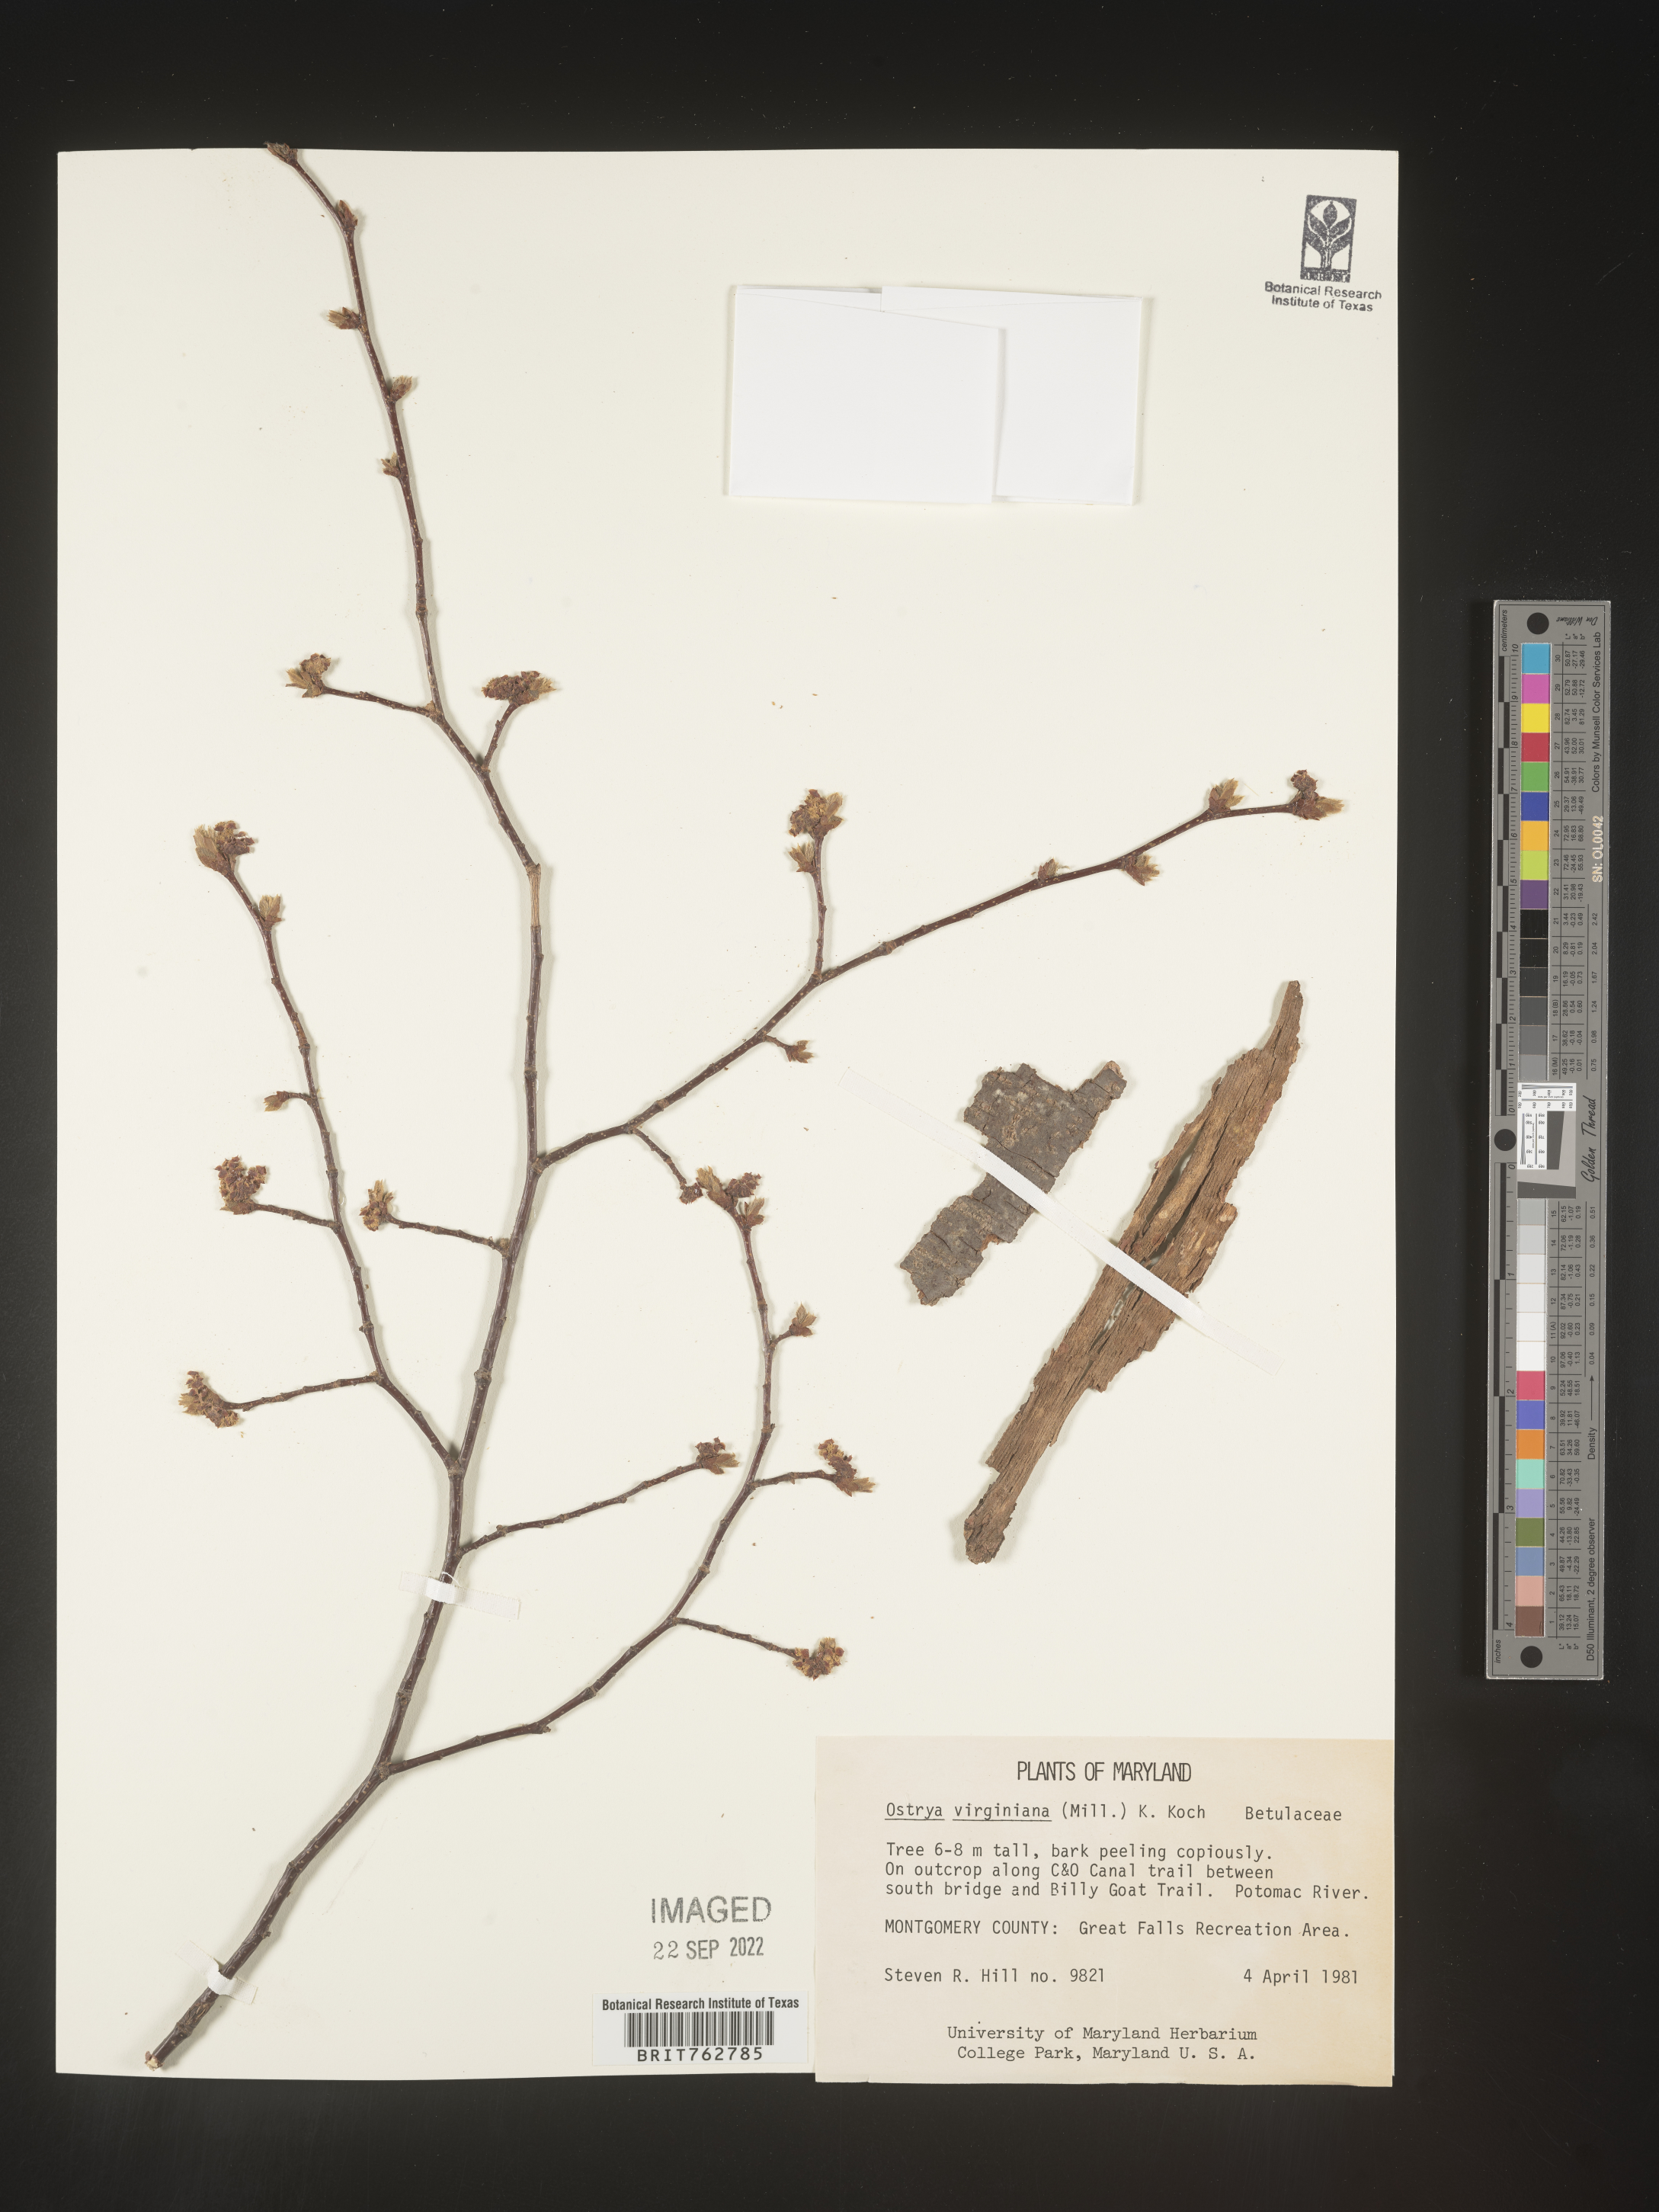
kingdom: Plantae
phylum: Tracheophyta
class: Magnoliopsida
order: Fagales
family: Betulaceae
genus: Ostrya
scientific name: Ostrya virginiana
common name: Ironwood
